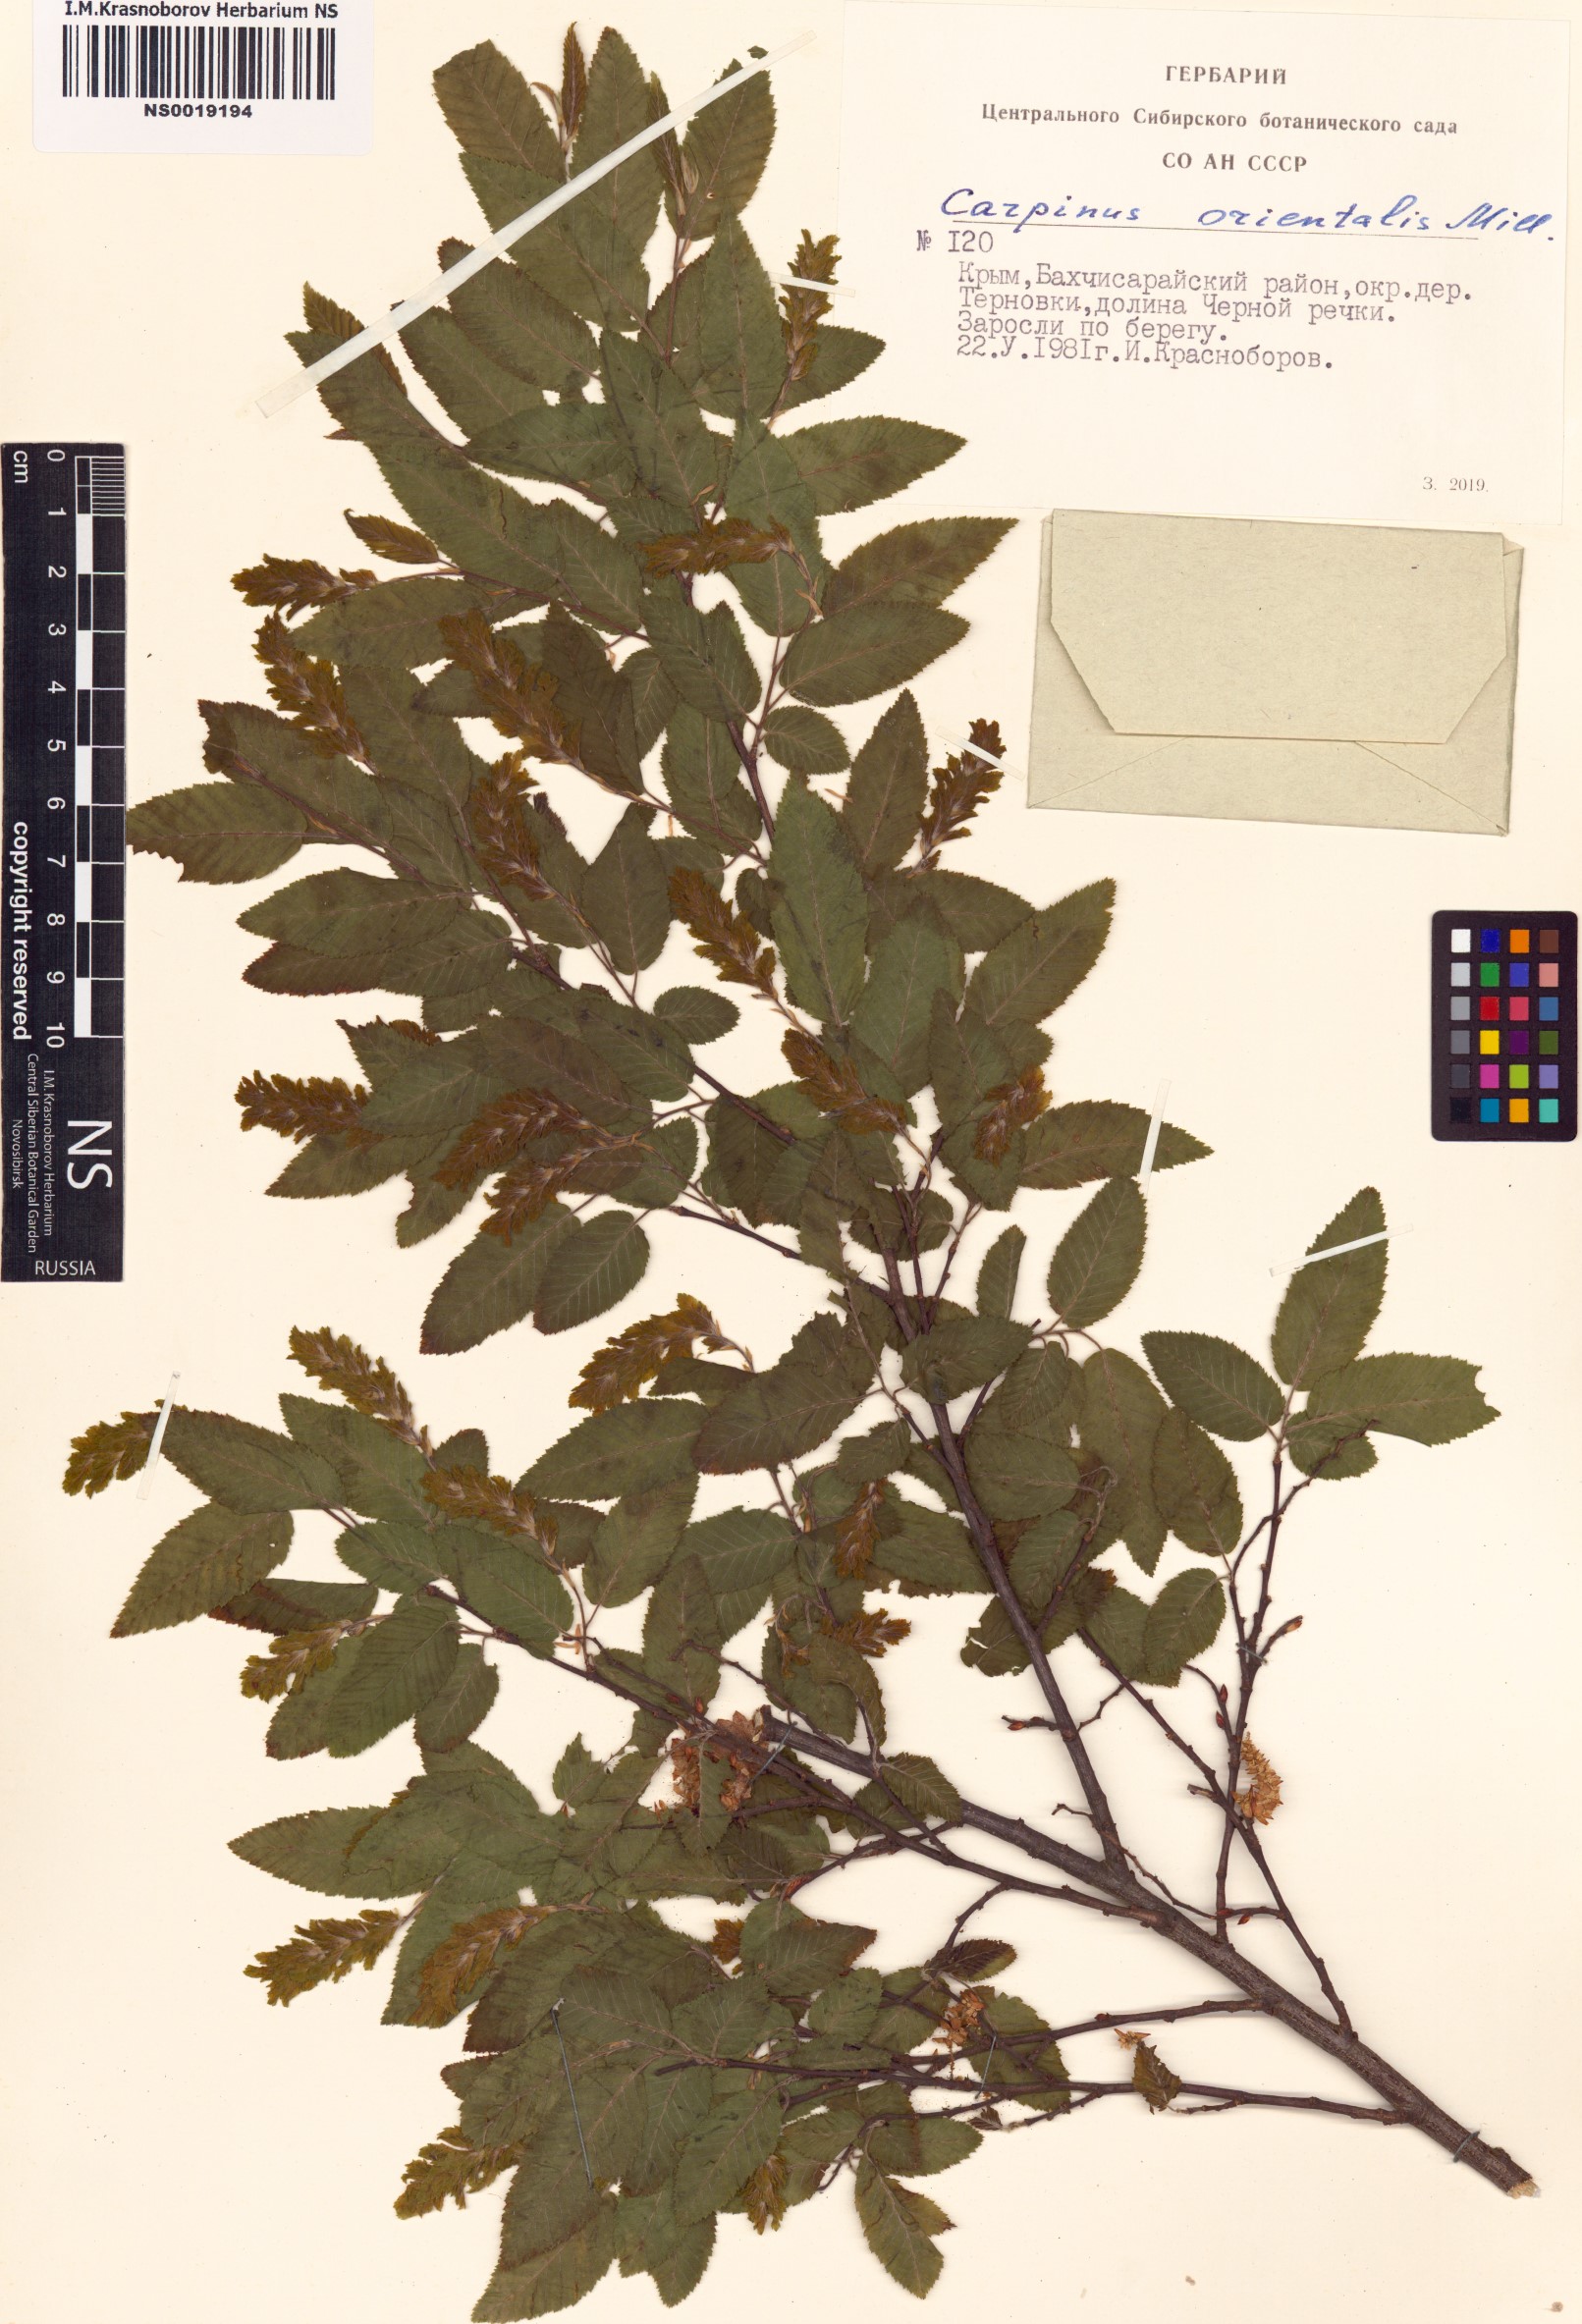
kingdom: Plantae
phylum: Tracheophyta
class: Magnoliopsida
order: Fagales
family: Betulaceae
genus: Carpinus
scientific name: Carpinus orientalis
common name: Eastern hornbeam
